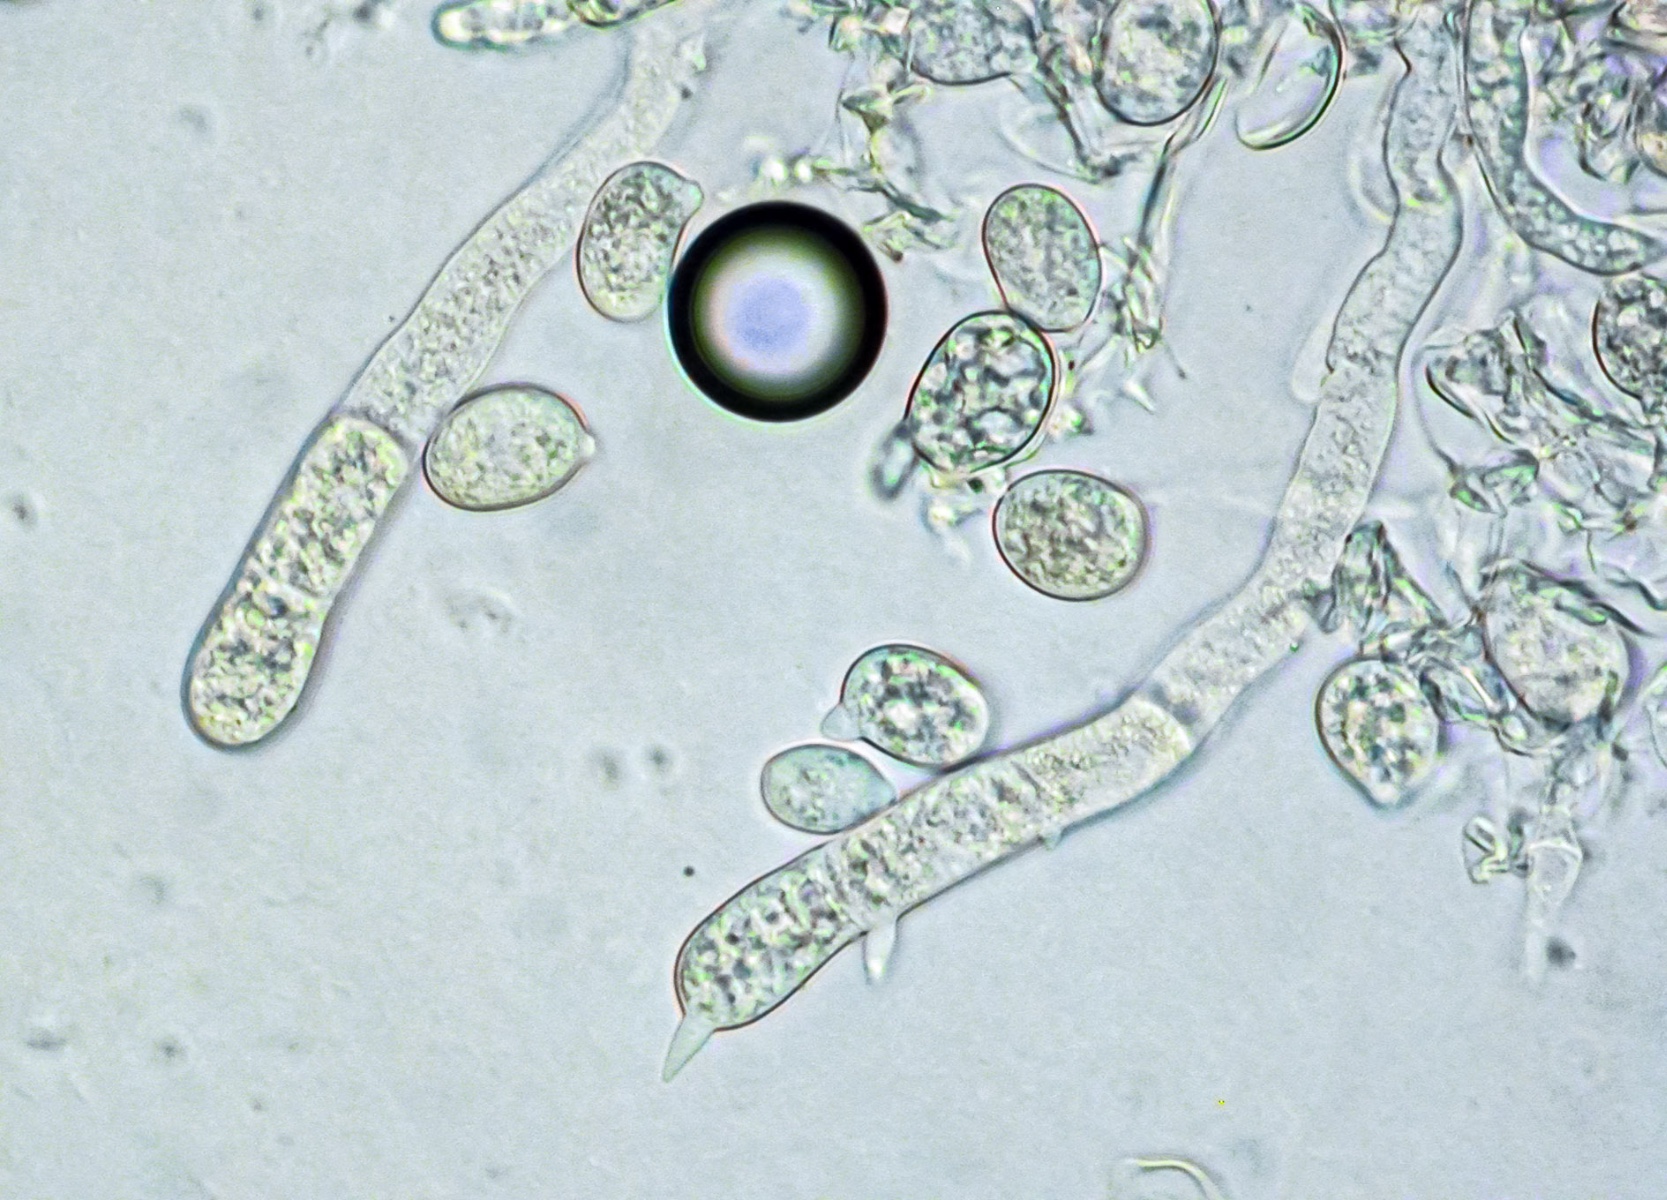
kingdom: Fungi
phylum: Basidiomycota
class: Atractiellomycetes
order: Atractiellales
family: Phleogenaceae
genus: Saccosoma
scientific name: Saccosoma farinaceum
